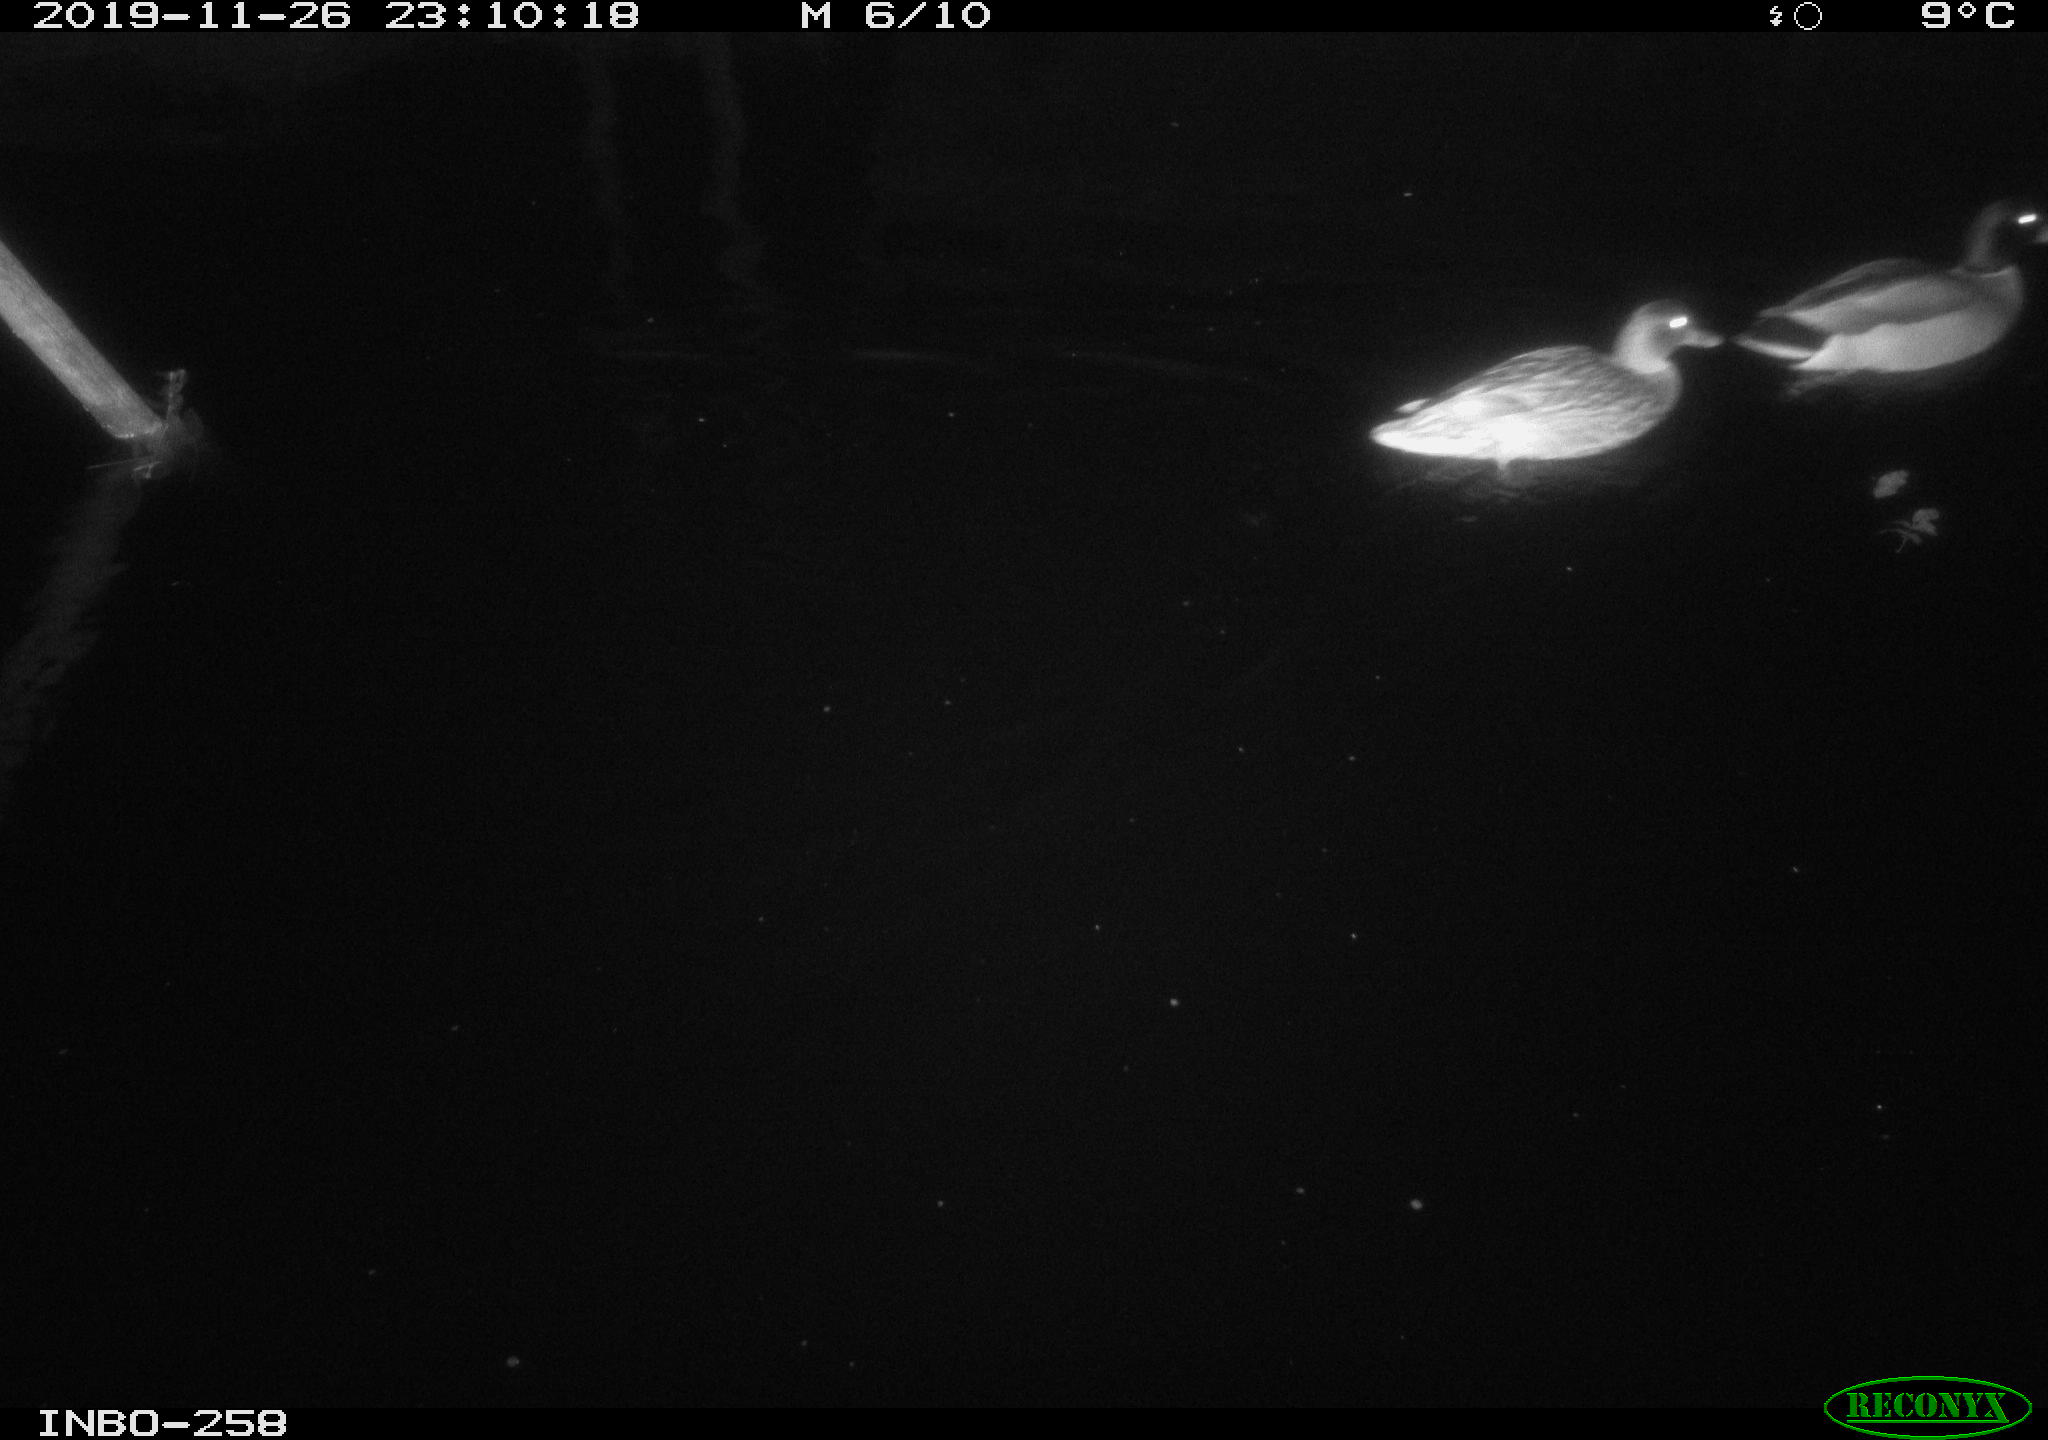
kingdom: Animalia
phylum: Chordata
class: Aves
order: Anseriformes
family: Anatidae
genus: Anas
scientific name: Anas platyrhynchos
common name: Mallard
